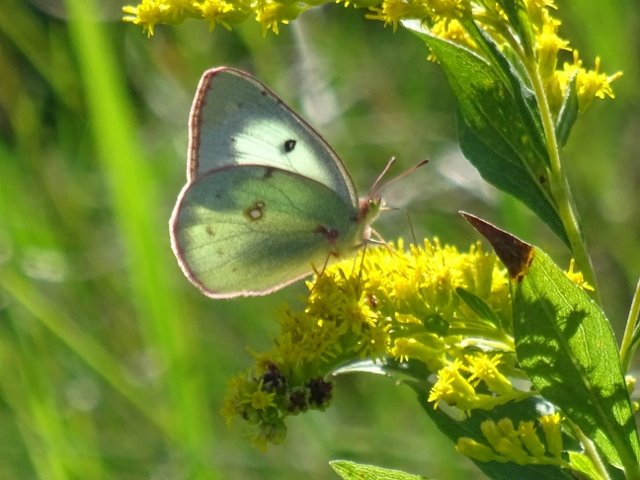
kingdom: Animalia
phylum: Arthropoda
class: Insecta
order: Lepidoptera
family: Pieridae
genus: Colias
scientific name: Colias philodice
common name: Clouded Sulphur
